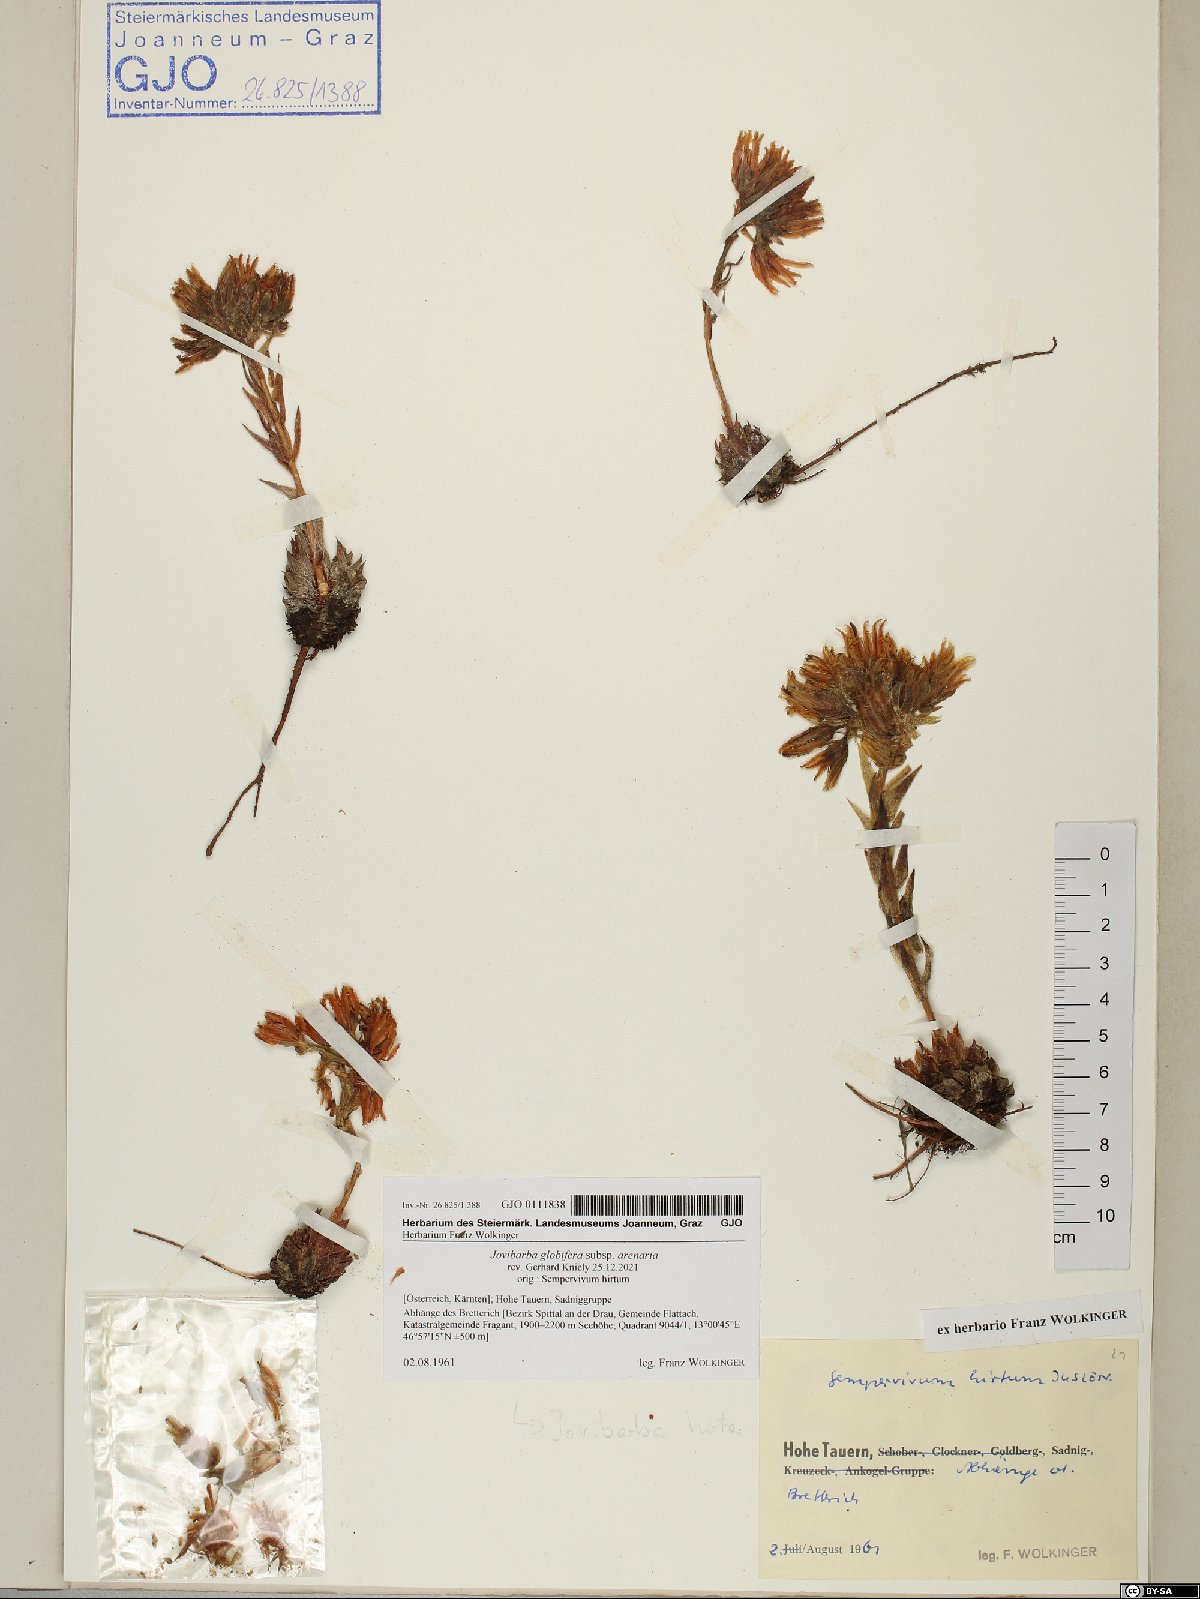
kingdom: Plantae
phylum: Tracheophyta
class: Magnoliopsida
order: Saxifragales
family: Crassulaceae
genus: Sempervivum
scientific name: Sempervivum globiferum
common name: Rolling hen-and-chicks
